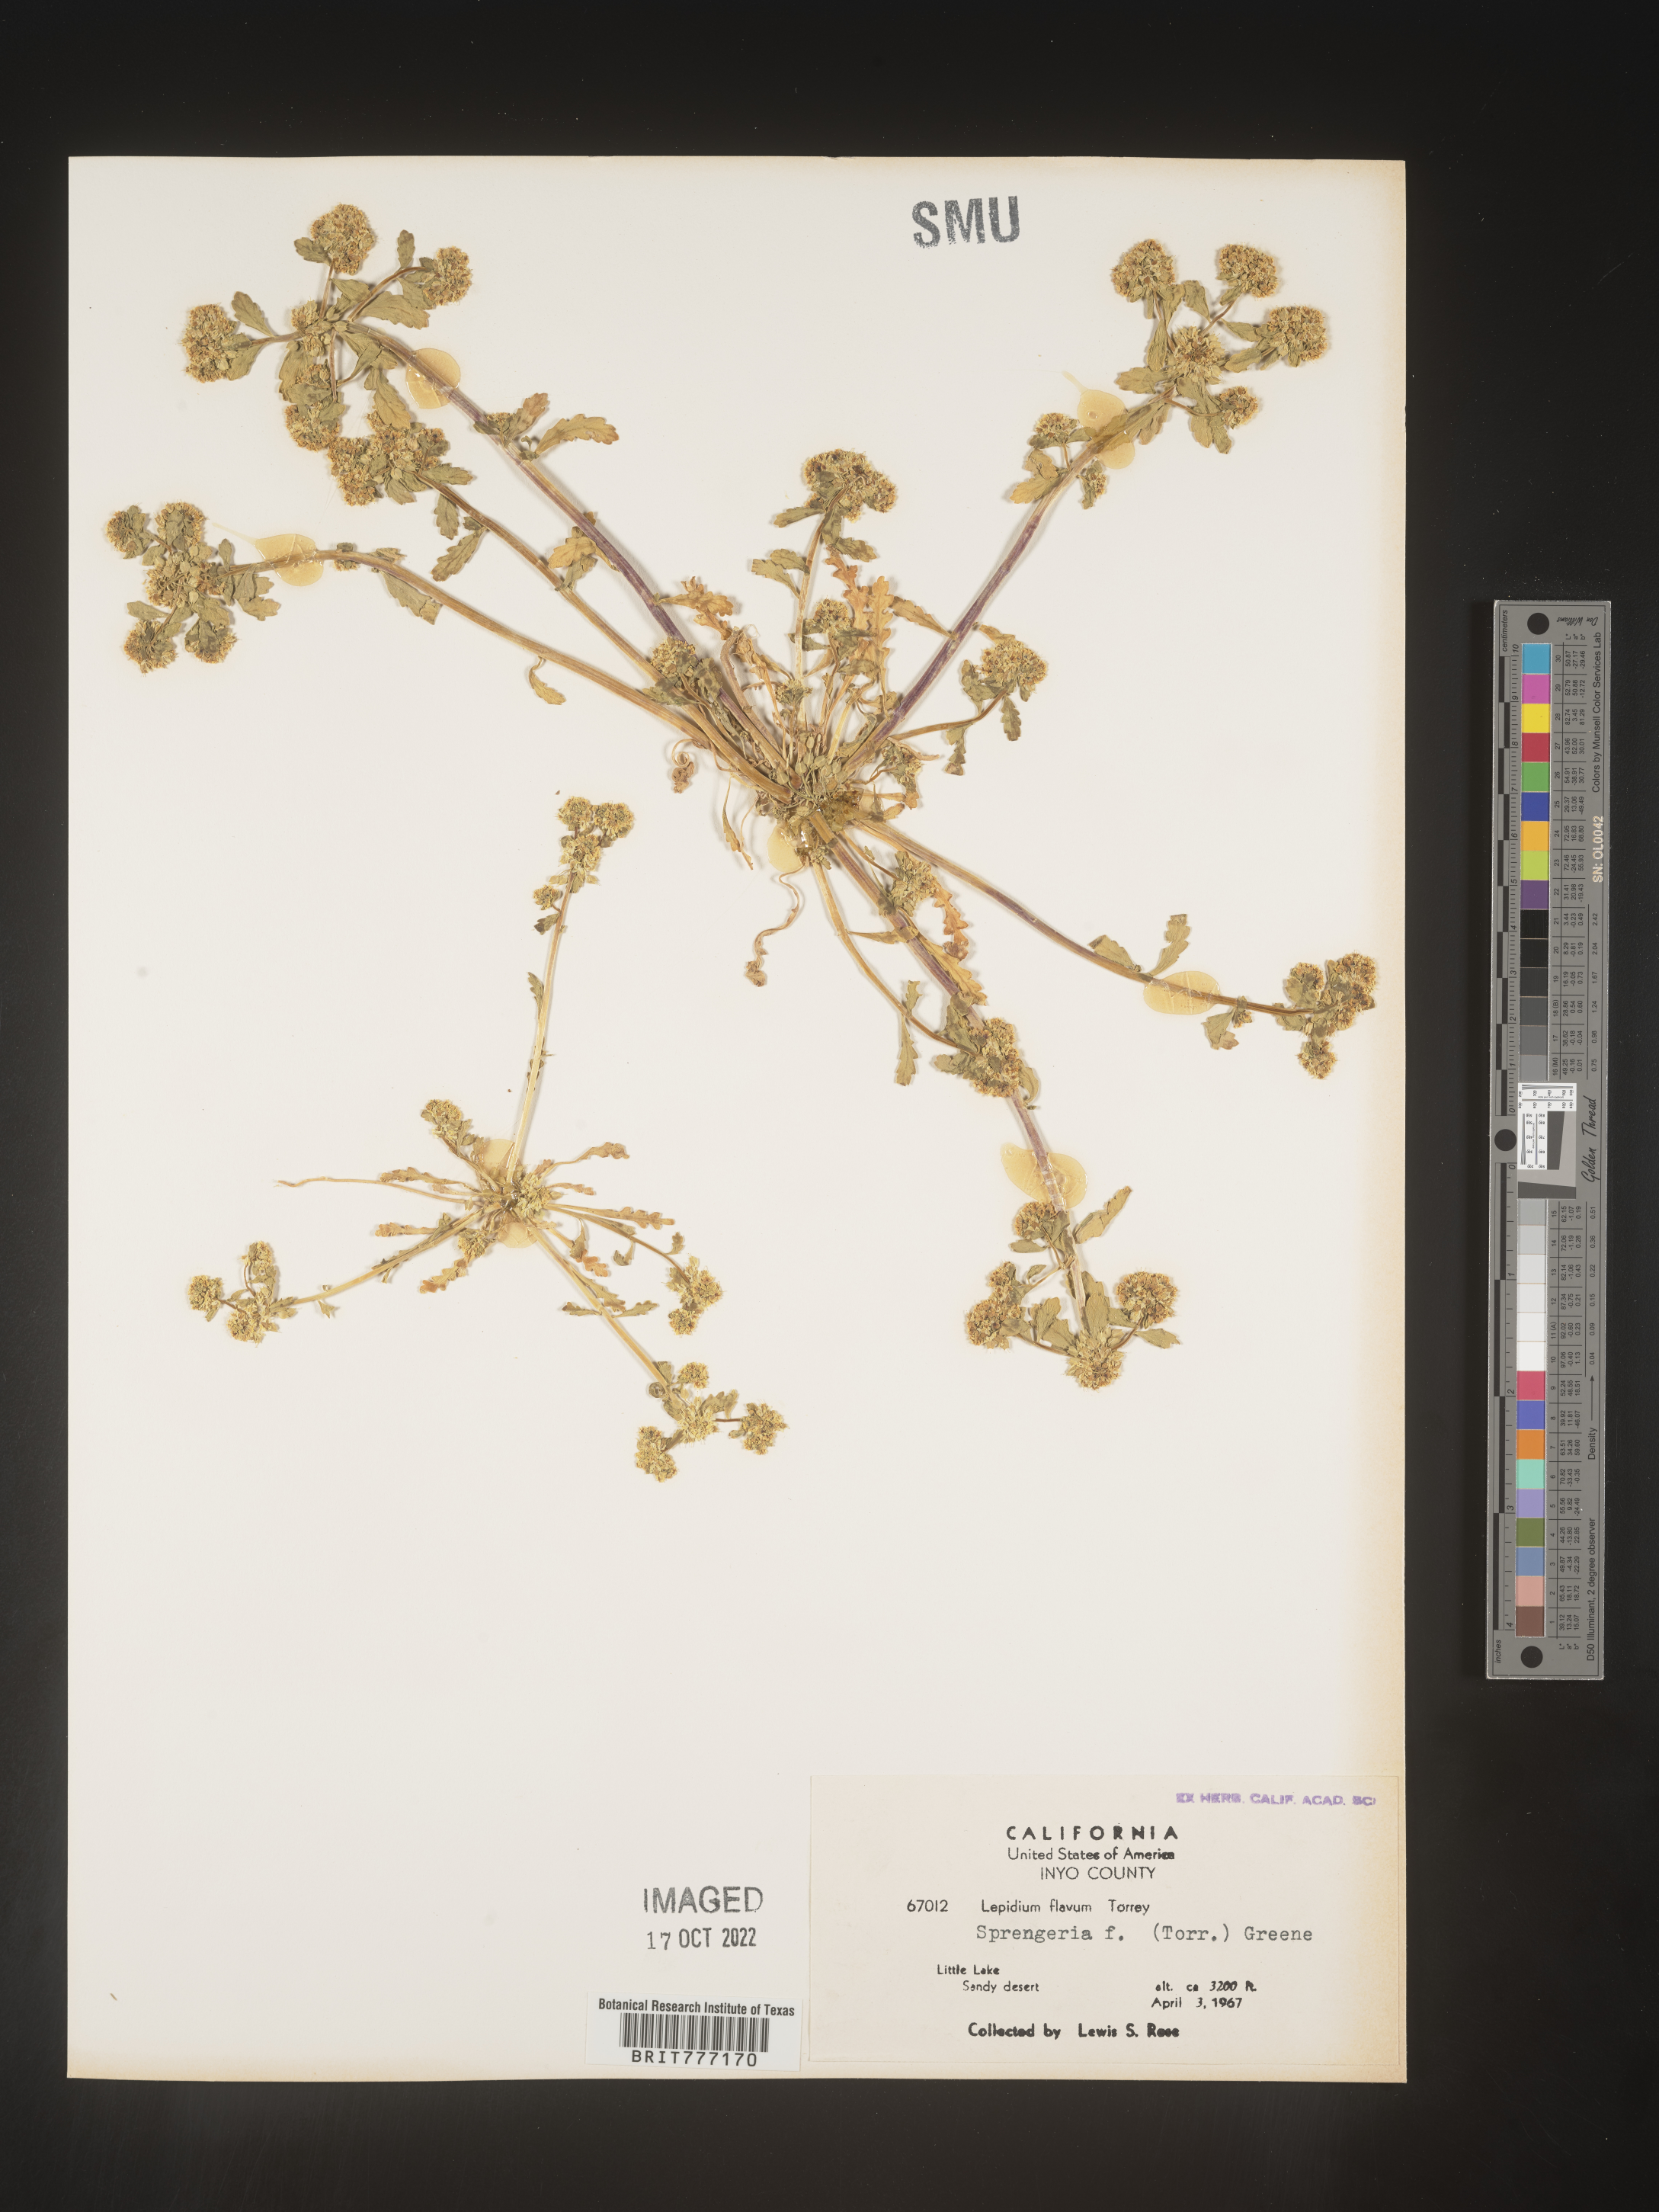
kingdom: Plantae
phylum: Tracheophyta
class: Magnoliopsida
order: Brassicales
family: Brassicaceae
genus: Lepidium
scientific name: Lepidium flavum
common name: Yellow pepperwort
